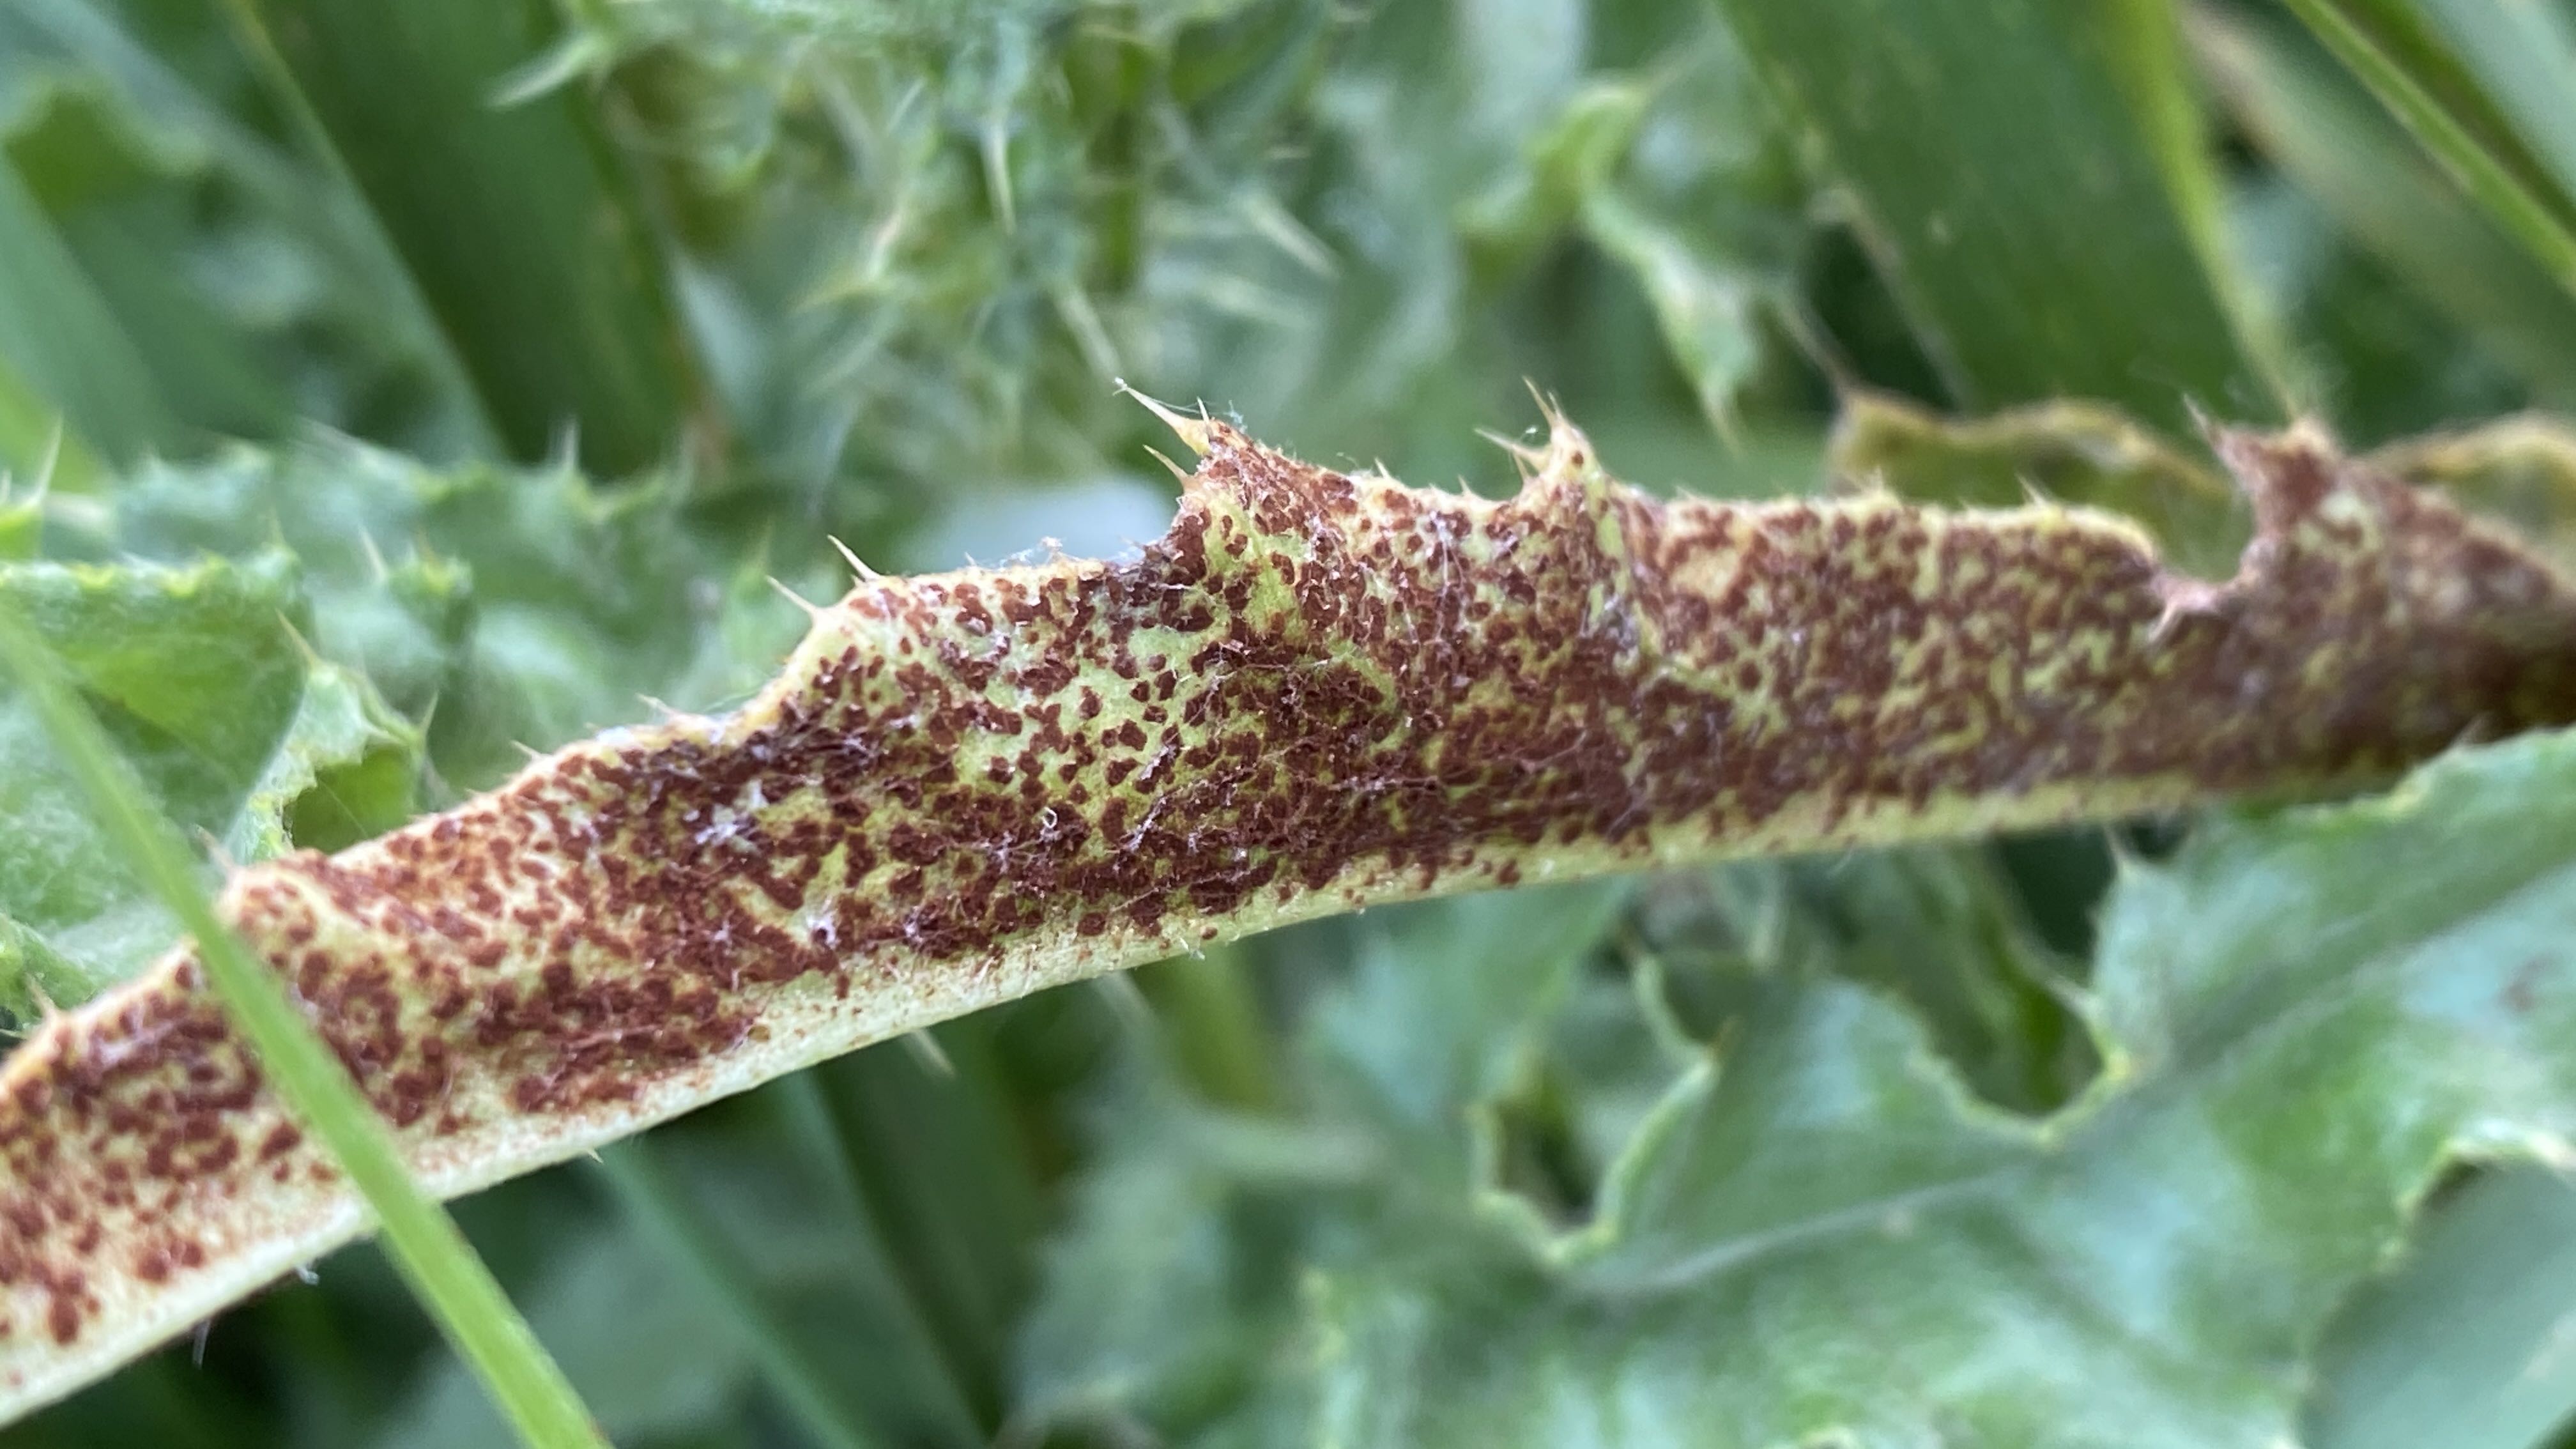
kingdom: Fungi
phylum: Basidiomycota
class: Pucciniomycetes
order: Pucciniales
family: Pucciniaceae
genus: Puccinia
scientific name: Puccinia suaveolens
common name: tidsel-tvecellerust
